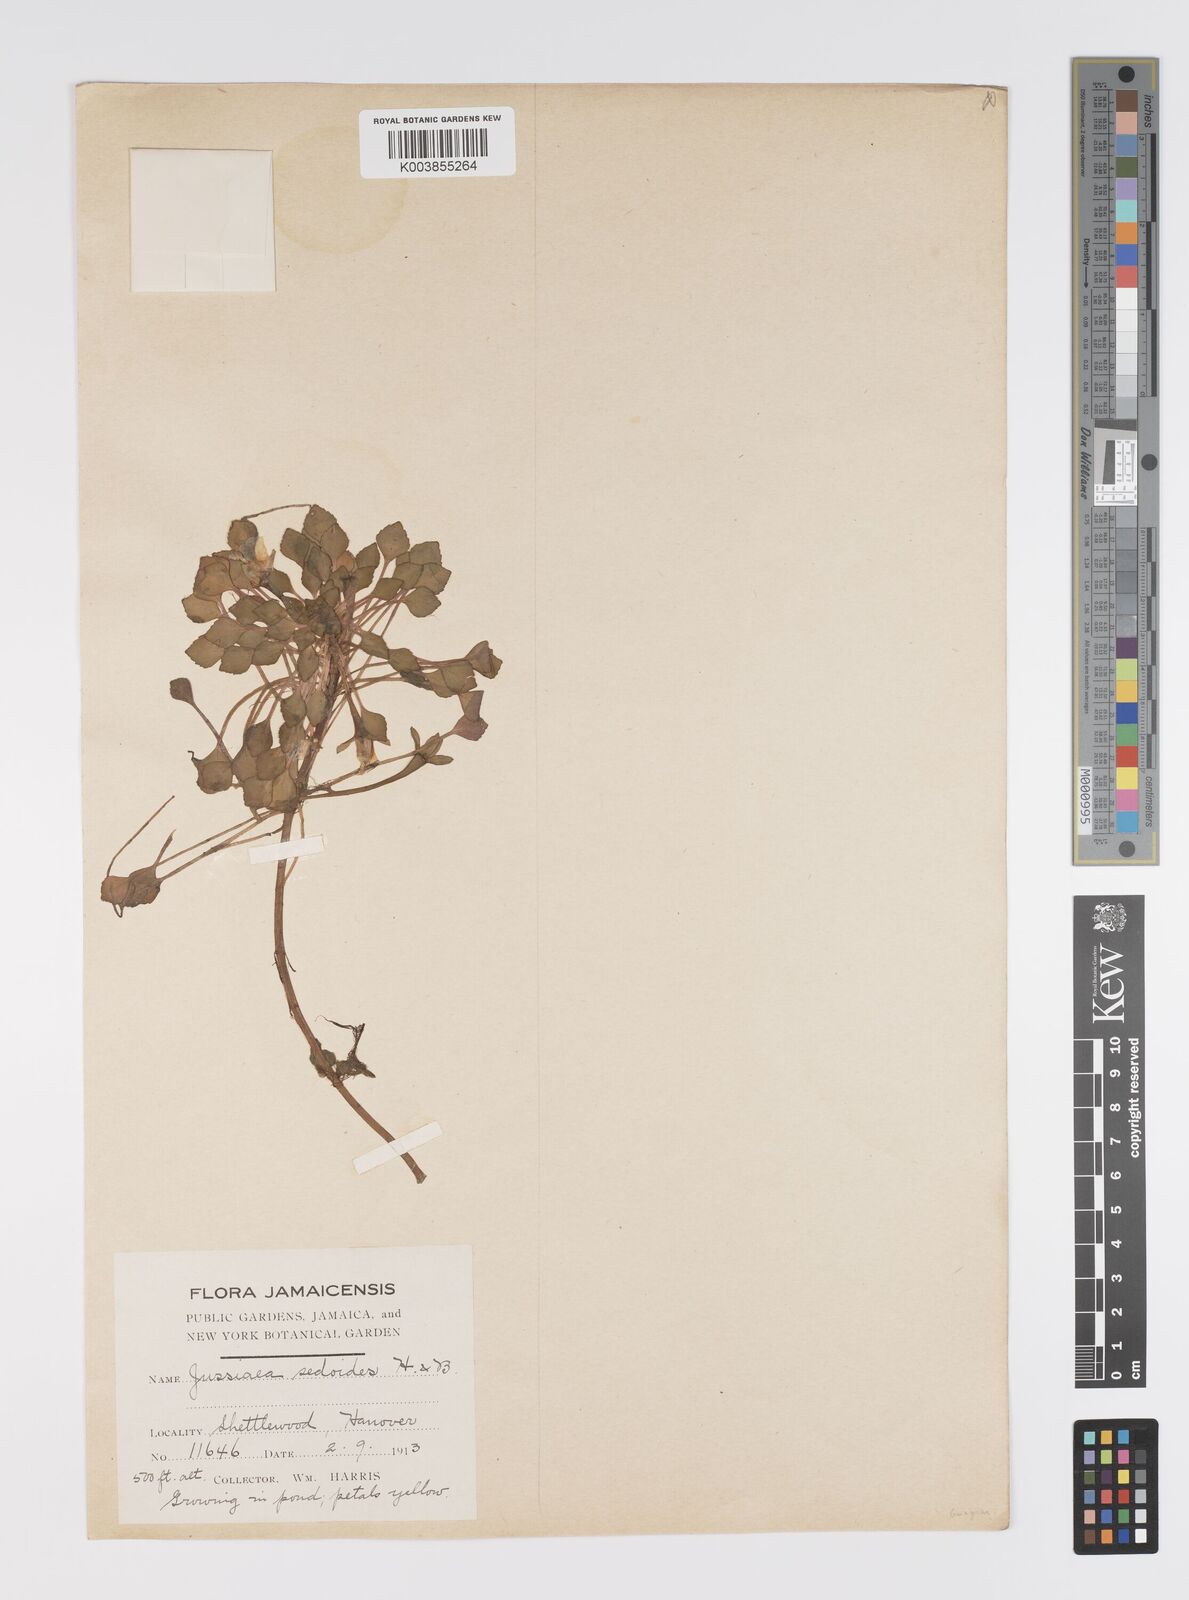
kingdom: Plantae
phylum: Tracheophyta
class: Magnoliopsida
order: Myrtales
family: Onagraceae
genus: Ludwigia
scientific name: Ludwigia sedoides
